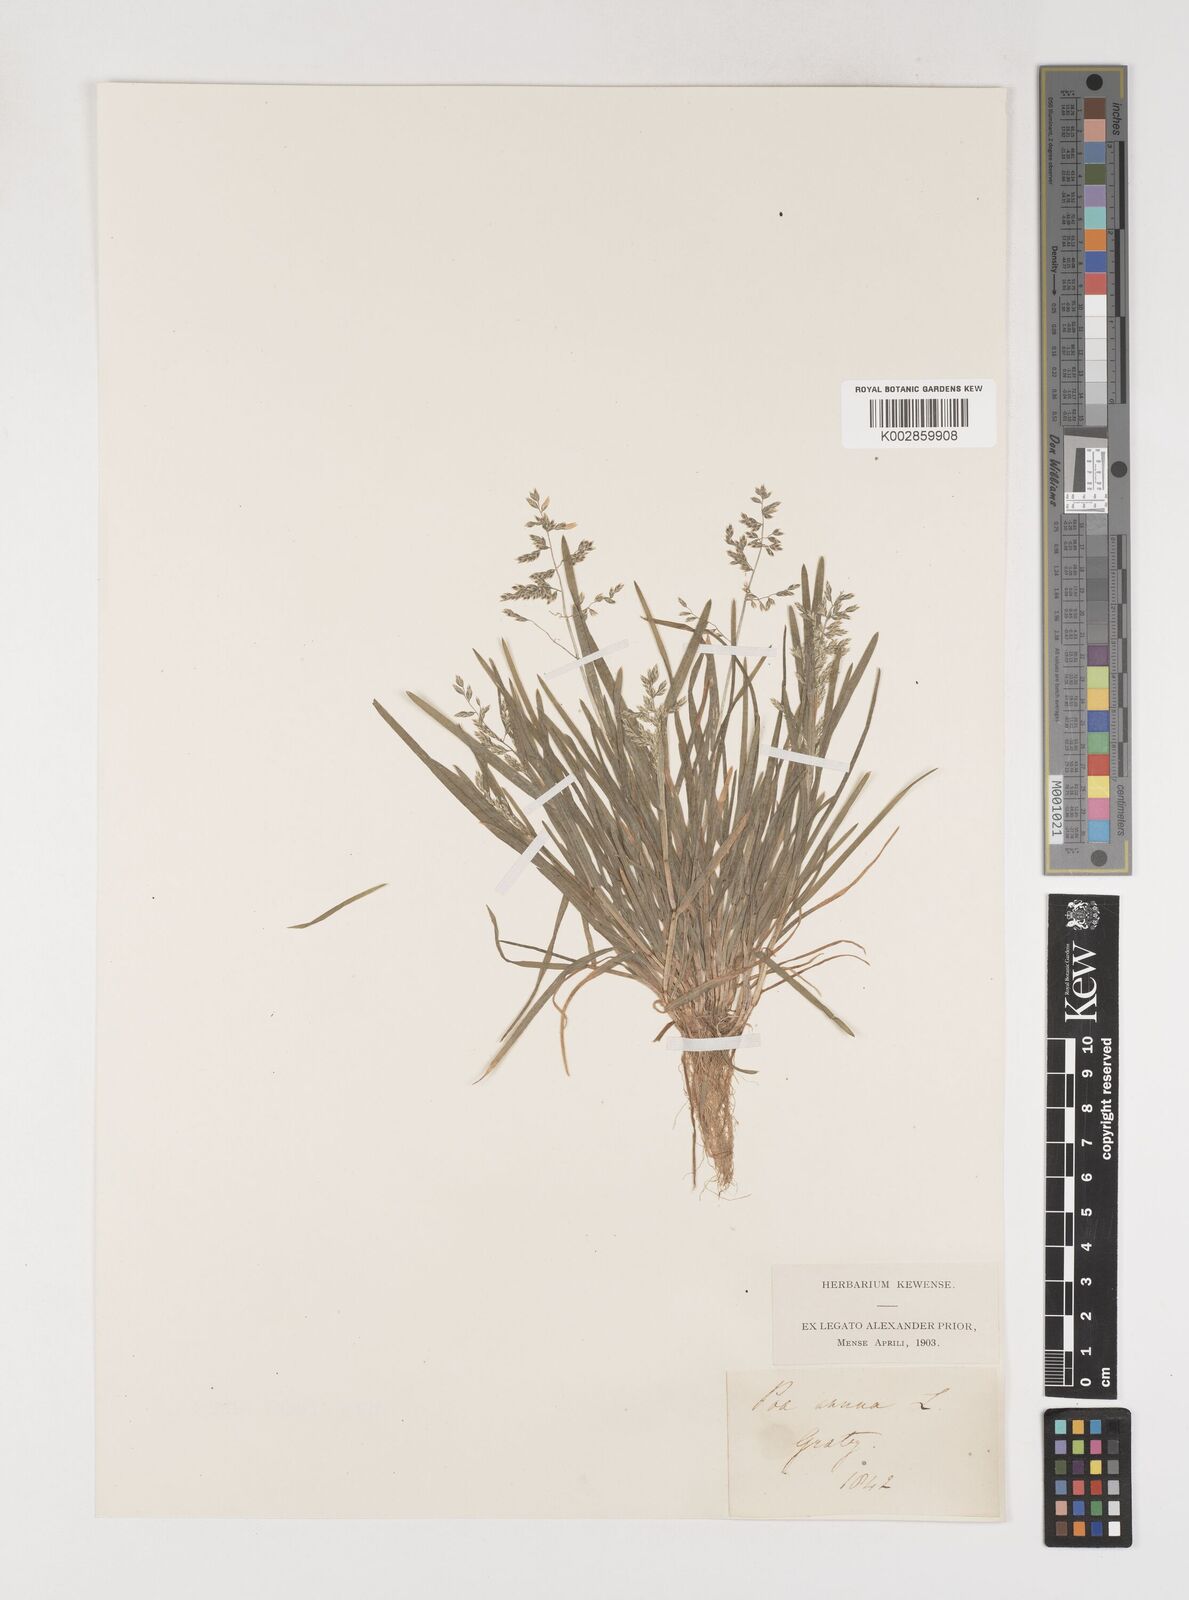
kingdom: Plantae
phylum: Tracheophyta
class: Liliopsida
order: Poales
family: Poaceae
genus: Poa
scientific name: Poa annua
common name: Annual bluegrass
